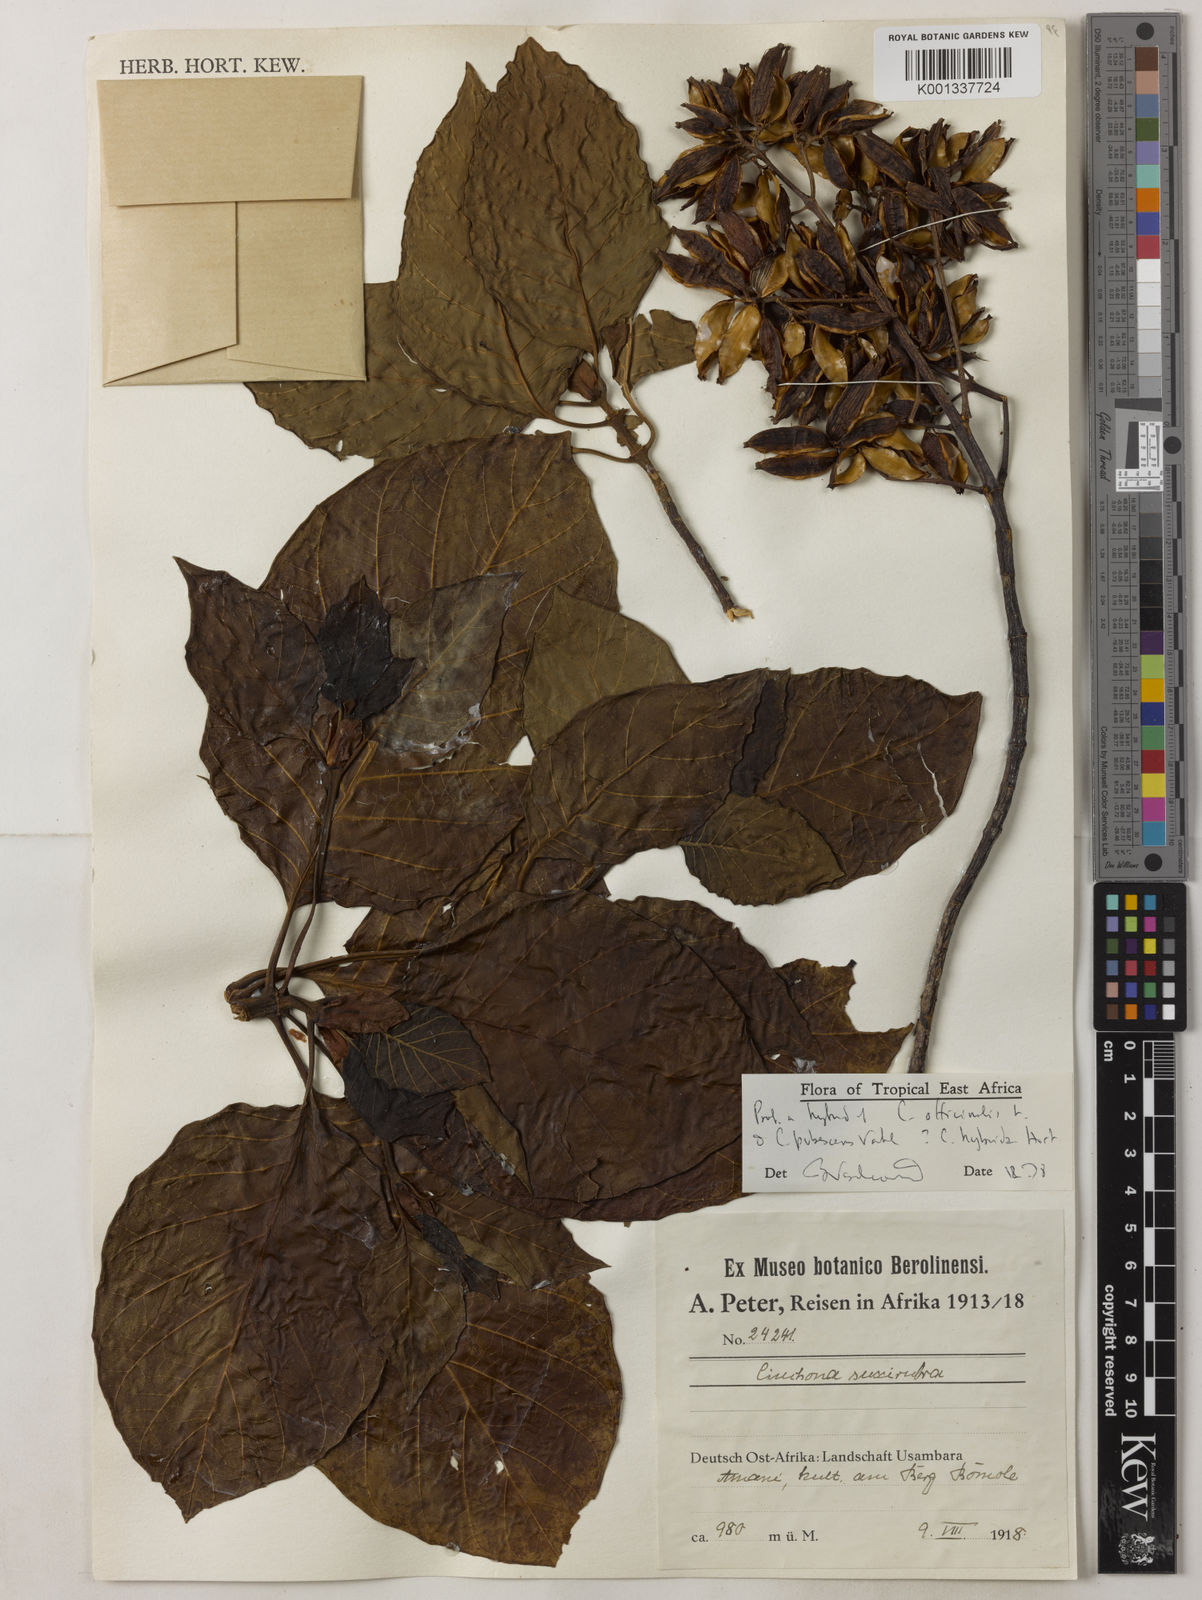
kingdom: Plantae
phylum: Tracheophyta
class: Magnoliopsida
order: Gentianales
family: Rubiaceae
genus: Cinchona
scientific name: Cinchona
